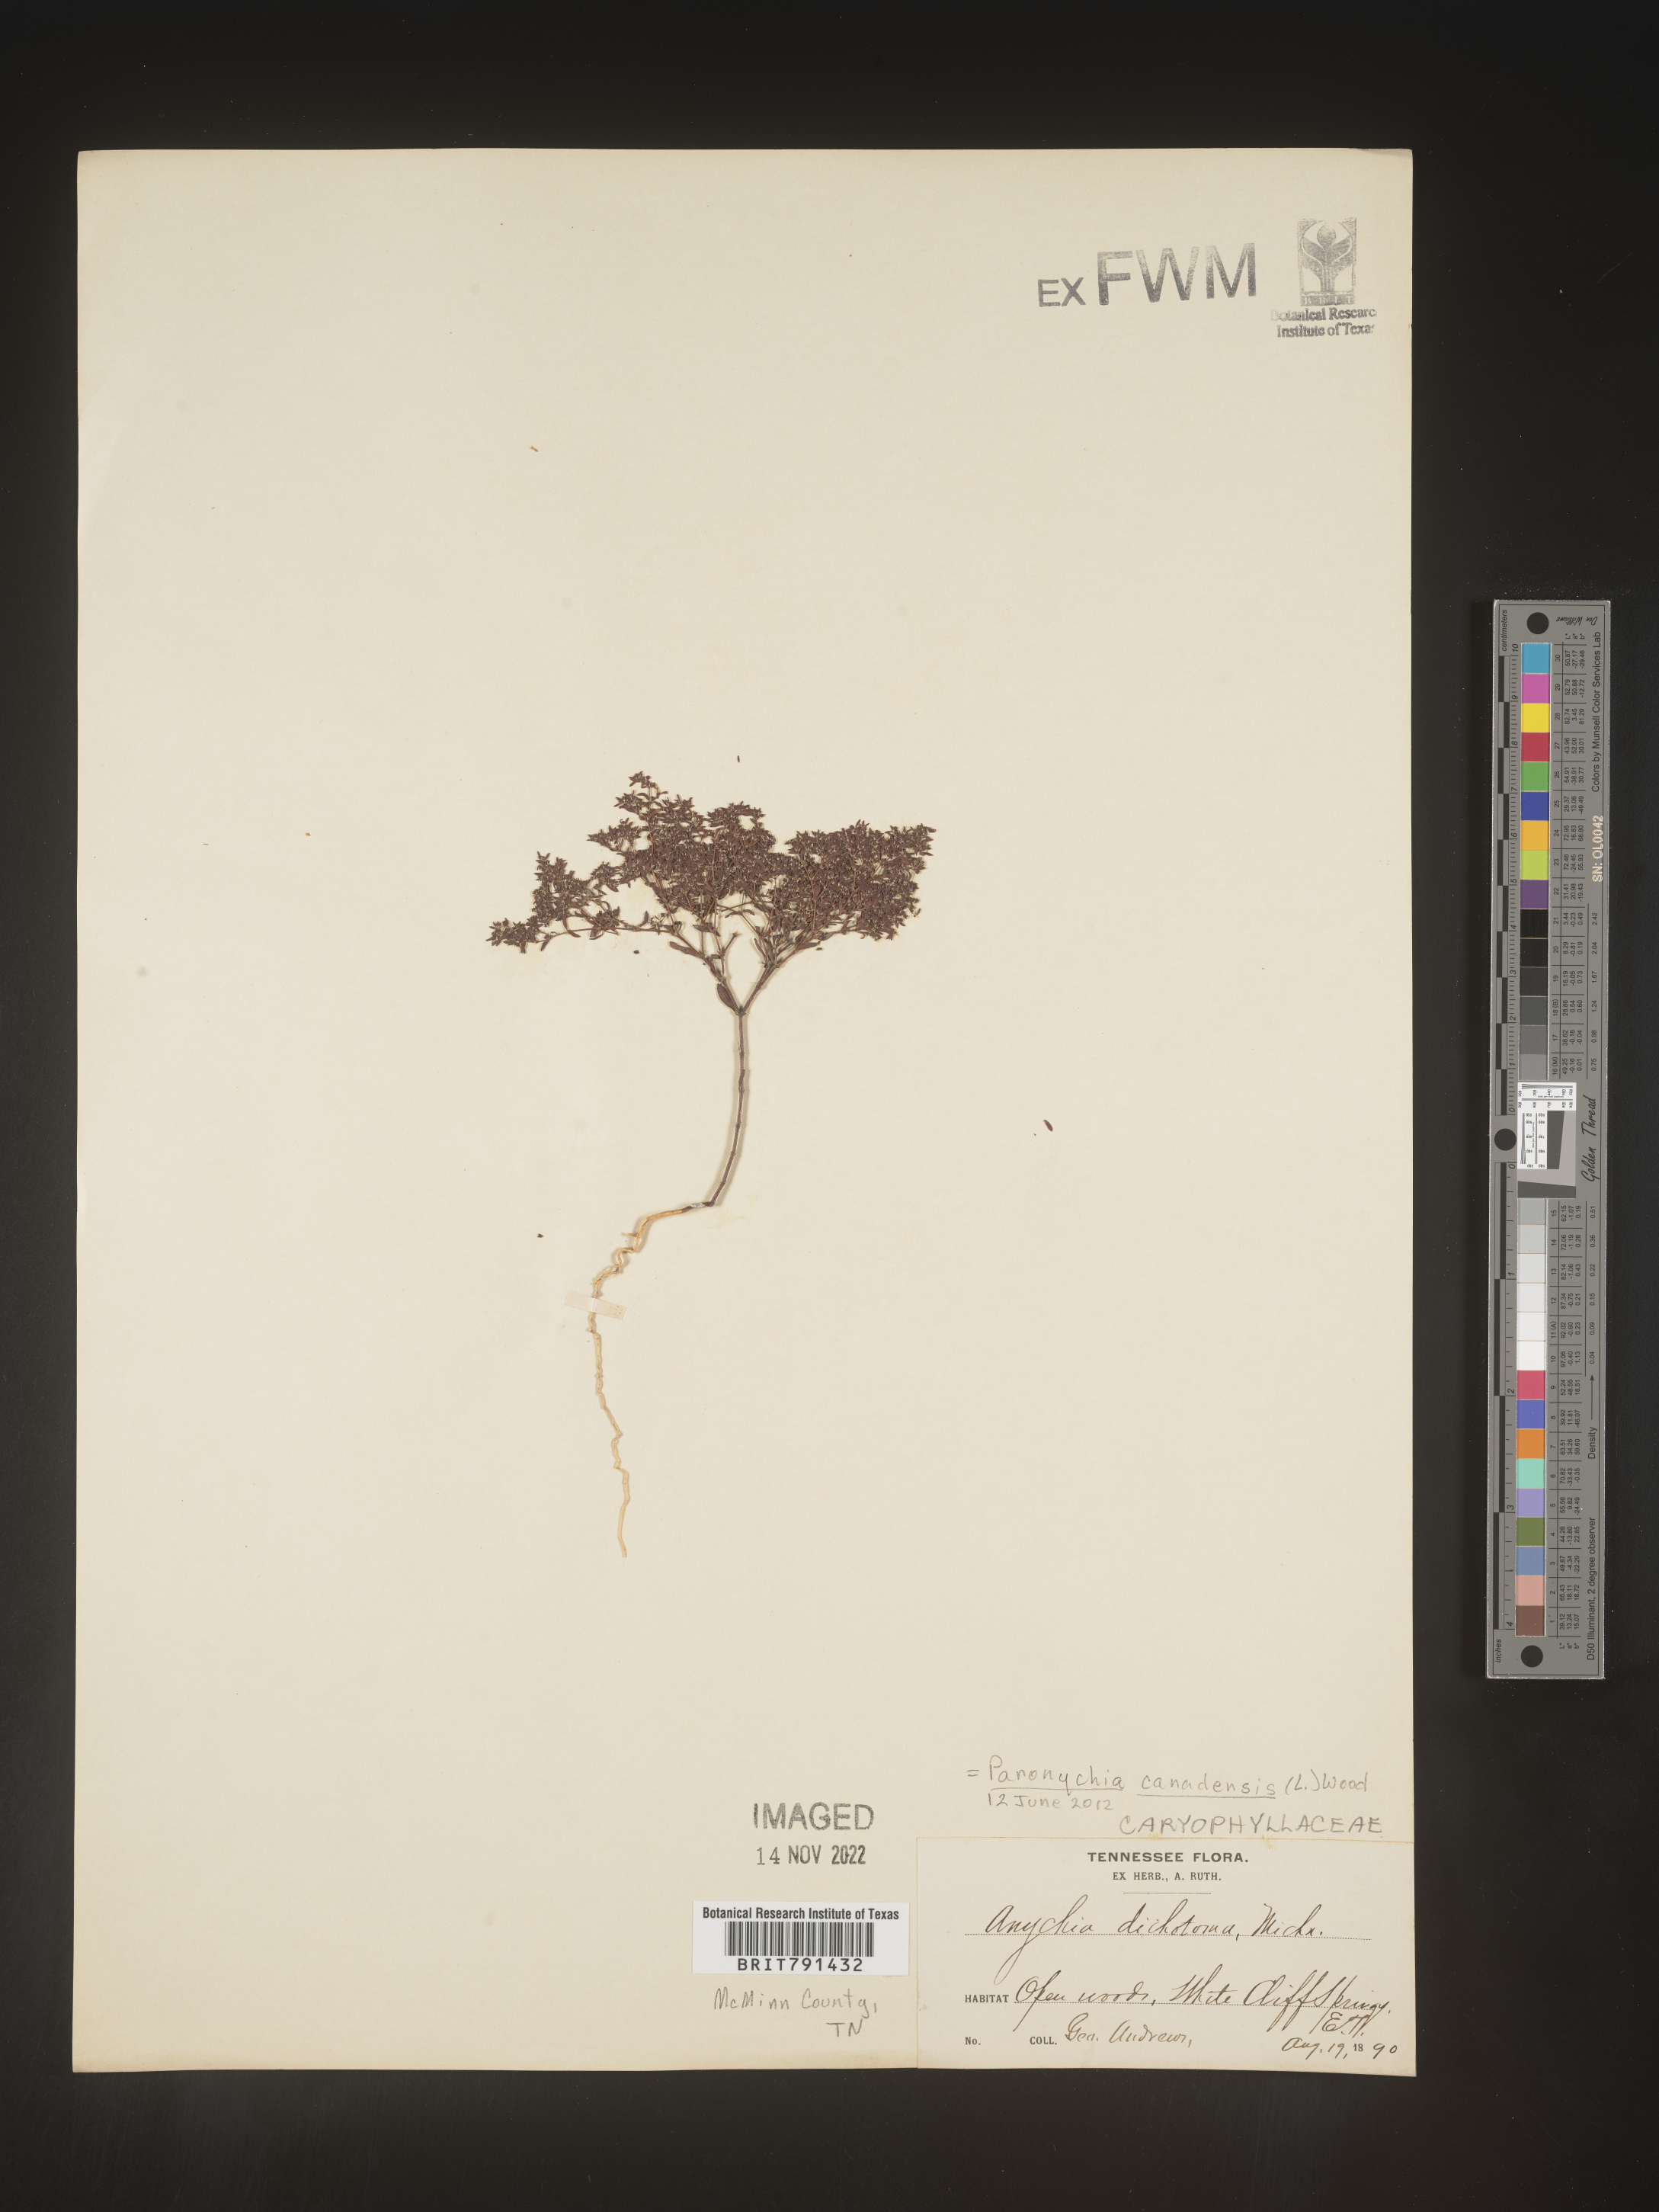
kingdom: Plantae
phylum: Tracheophyta
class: Magnoliopsida
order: Caryophyllales
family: Caryophyllaceae
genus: Paronychia
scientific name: Paronychia canadensis
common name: Canada forked nailwort
